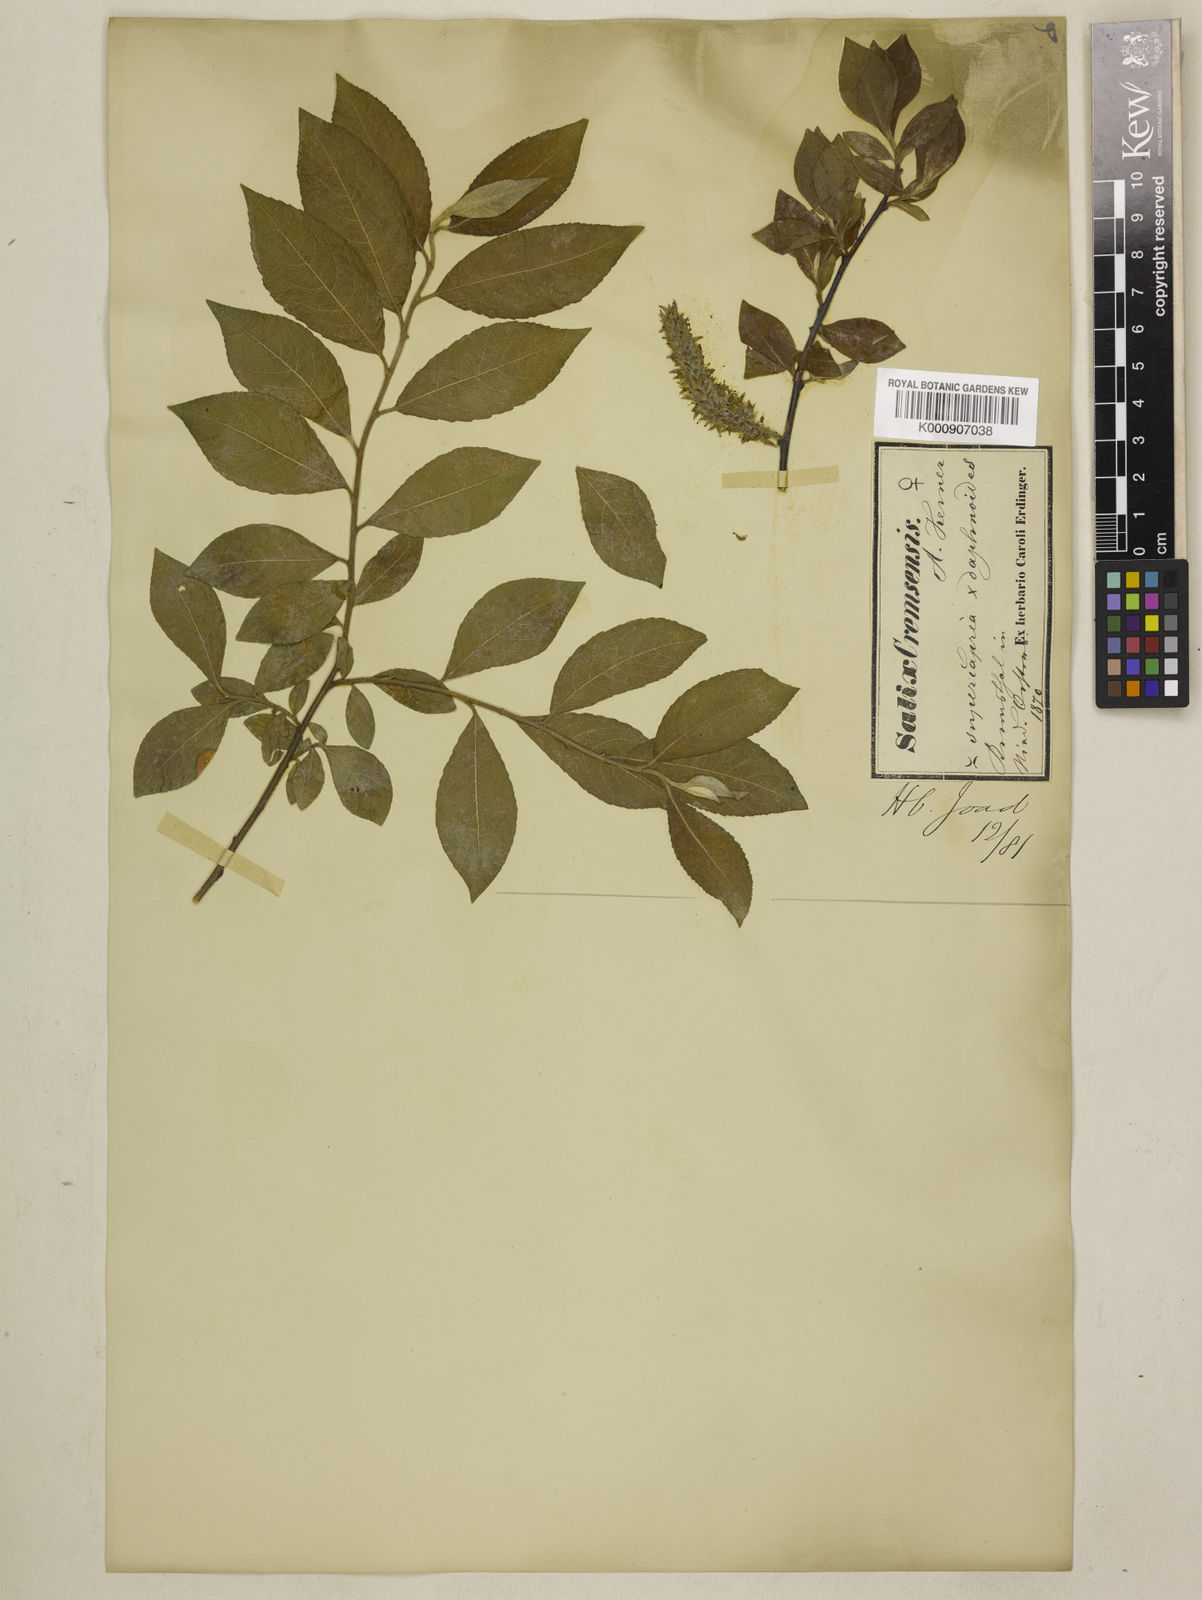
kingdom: Plantae
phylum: Tracheophyta
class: Magnoliopsida
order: Malpighiales
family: Salicaceae
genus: Salix
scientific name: Salix caprea
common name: Goat willow
